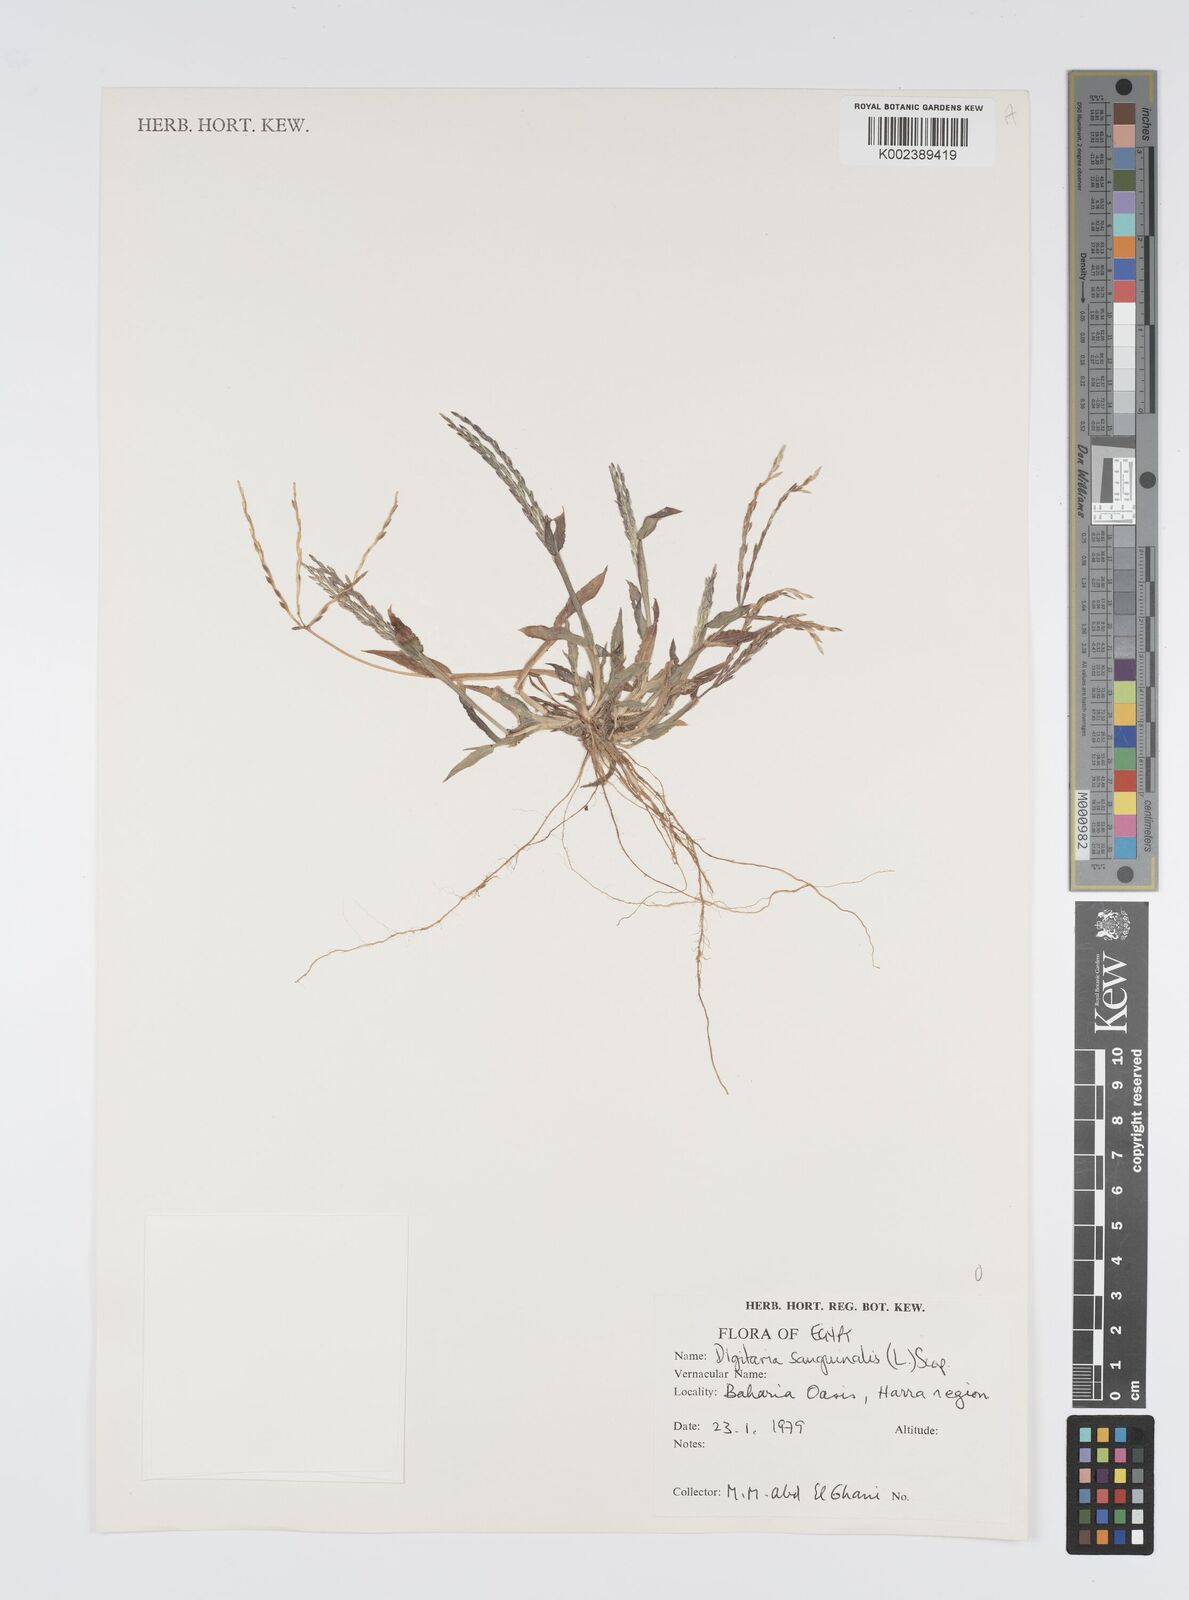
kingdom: Plantae
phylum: Tracheophyta
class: Liliopsida
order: Poales
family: Poaceae
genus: Digitaria
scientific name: Digitaria sanguinalis
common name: Hairy crabgrass
